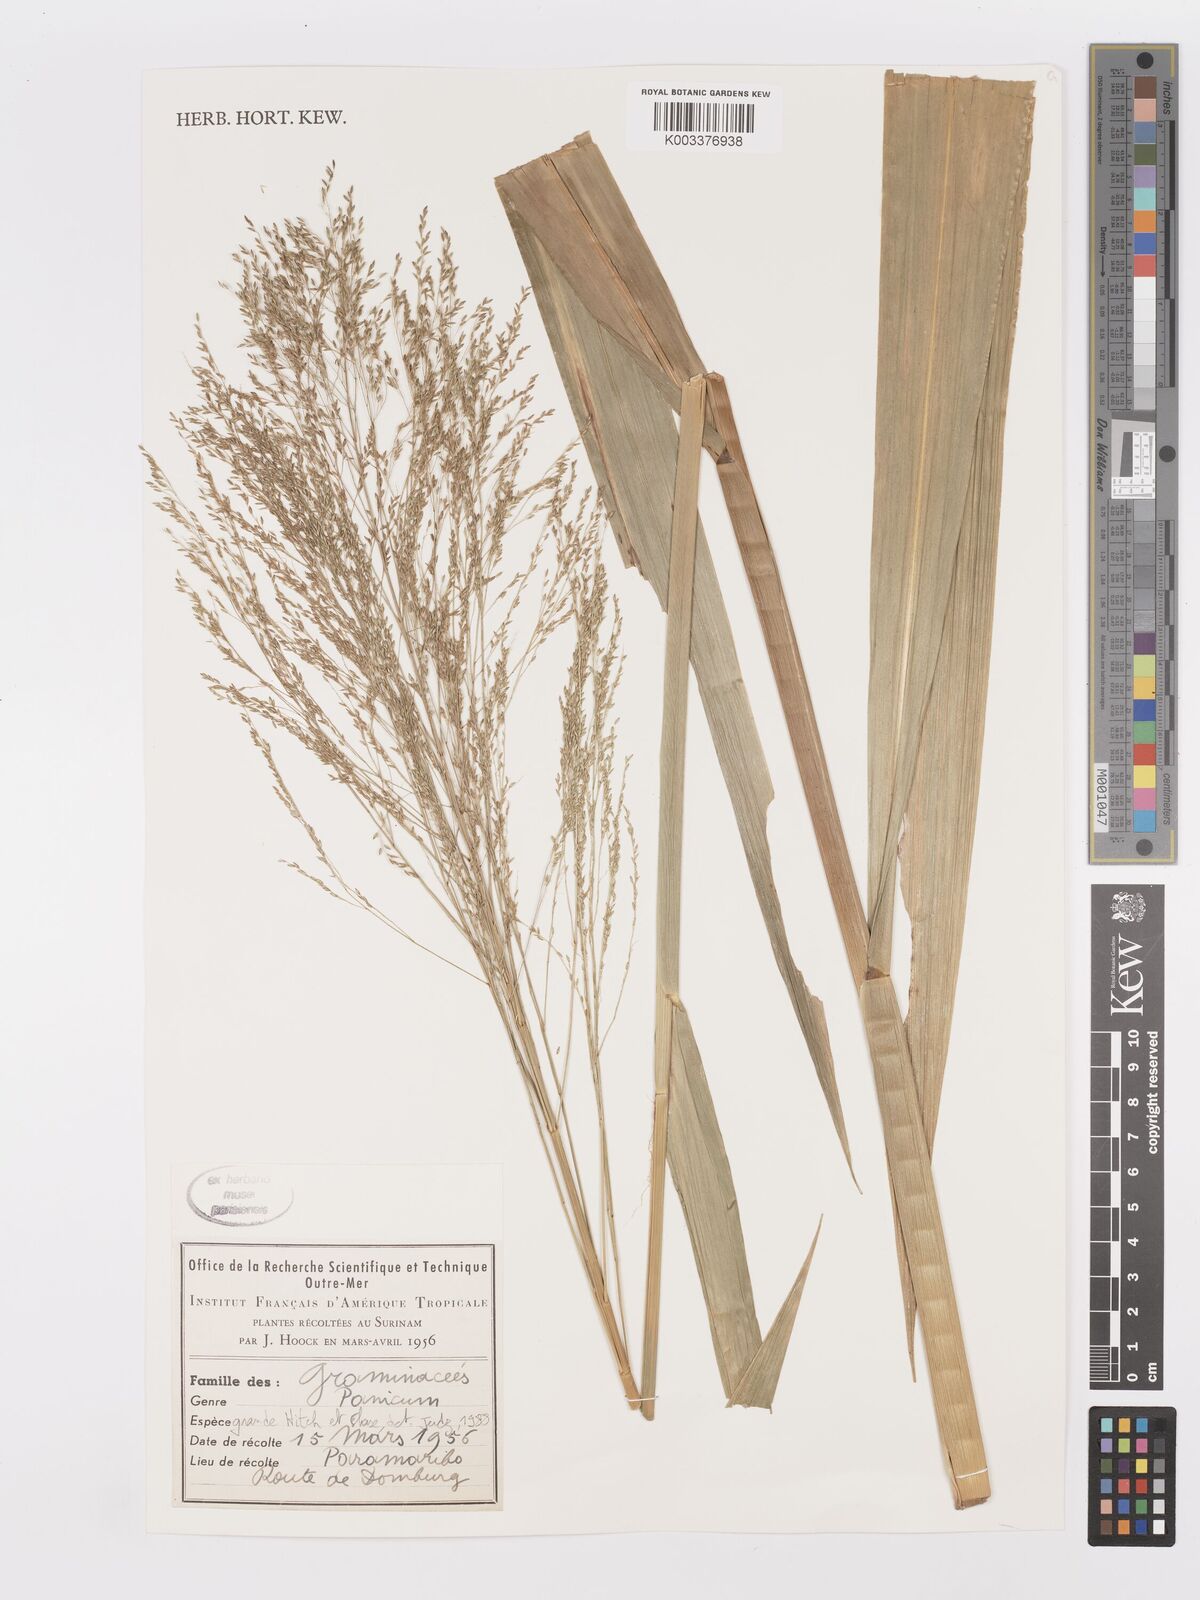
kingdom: Plantae
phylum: Tracheophyta
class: Liliopsida
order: Poales
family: Poaceae
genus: Panicum
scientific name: Panicum subalbidum
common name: Elbow buffalo grass
